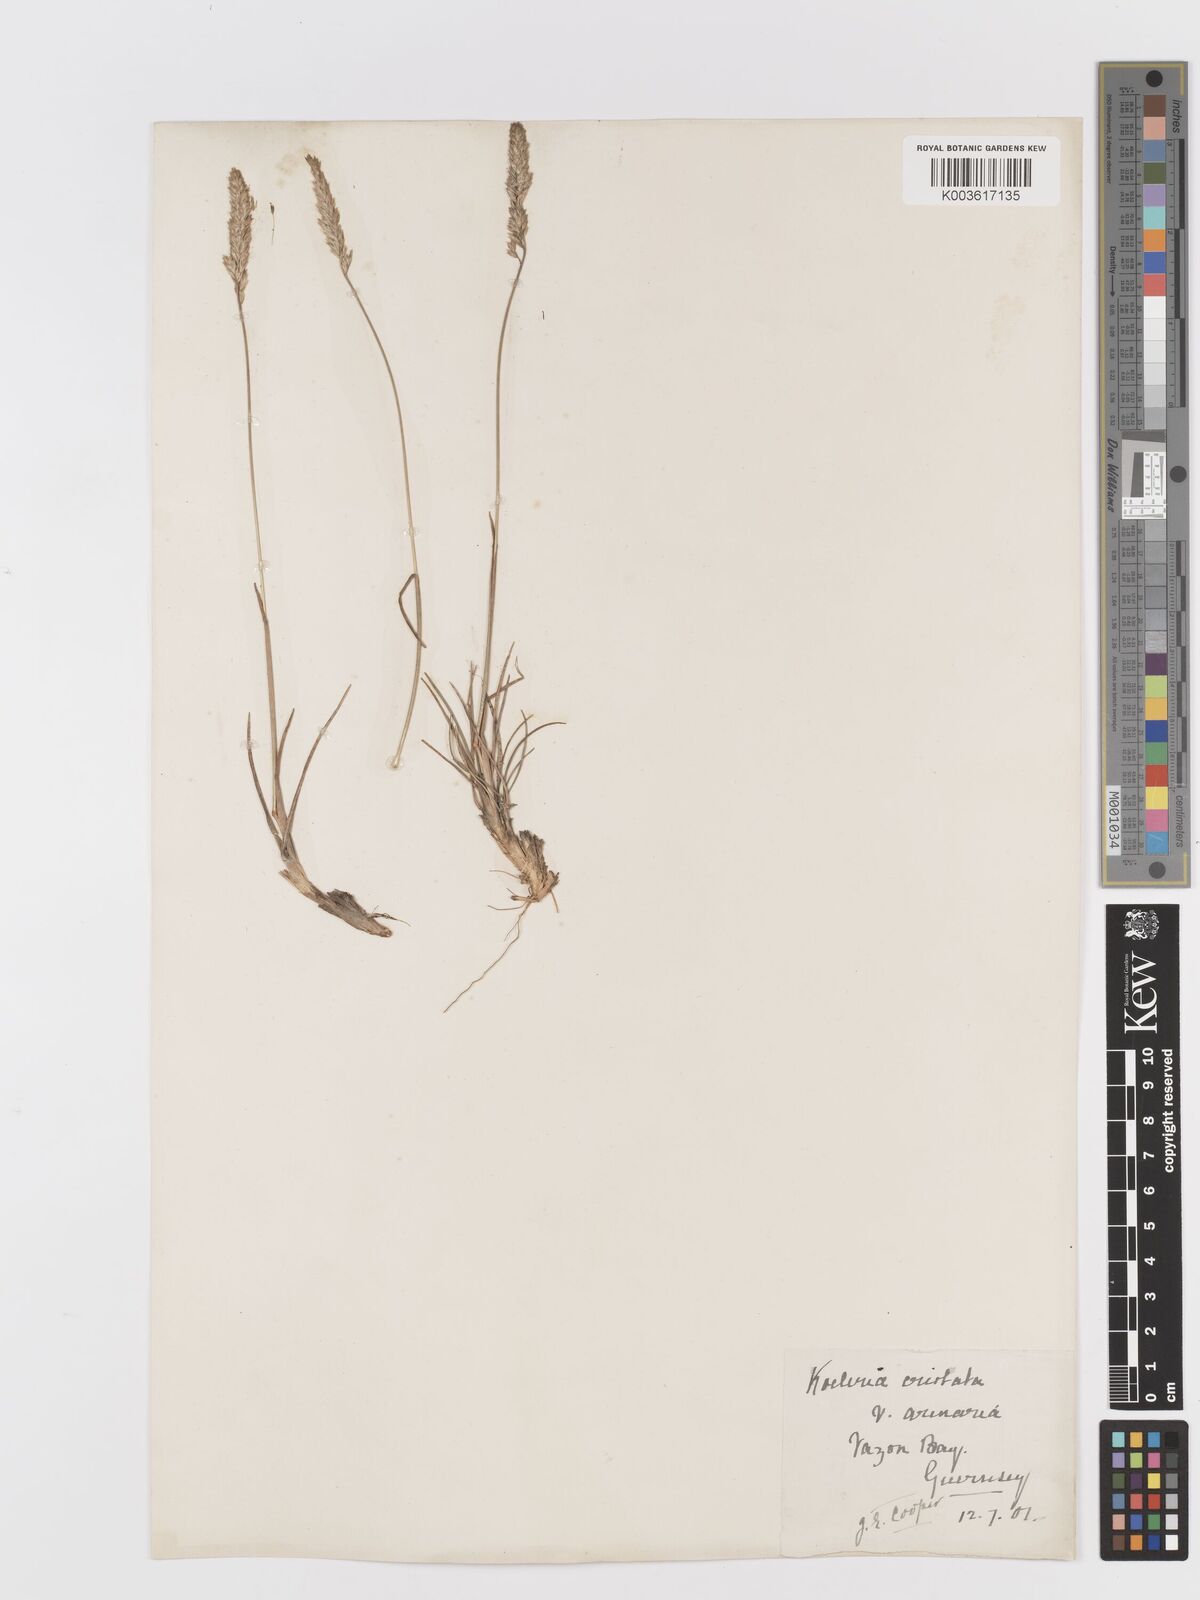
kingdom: Plantae
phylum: Tracheophyta
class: Liliopsida
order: Poales
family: Poaceae
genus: Koeleria
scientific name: Koeleria macrantha
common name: Crested hair-grass
